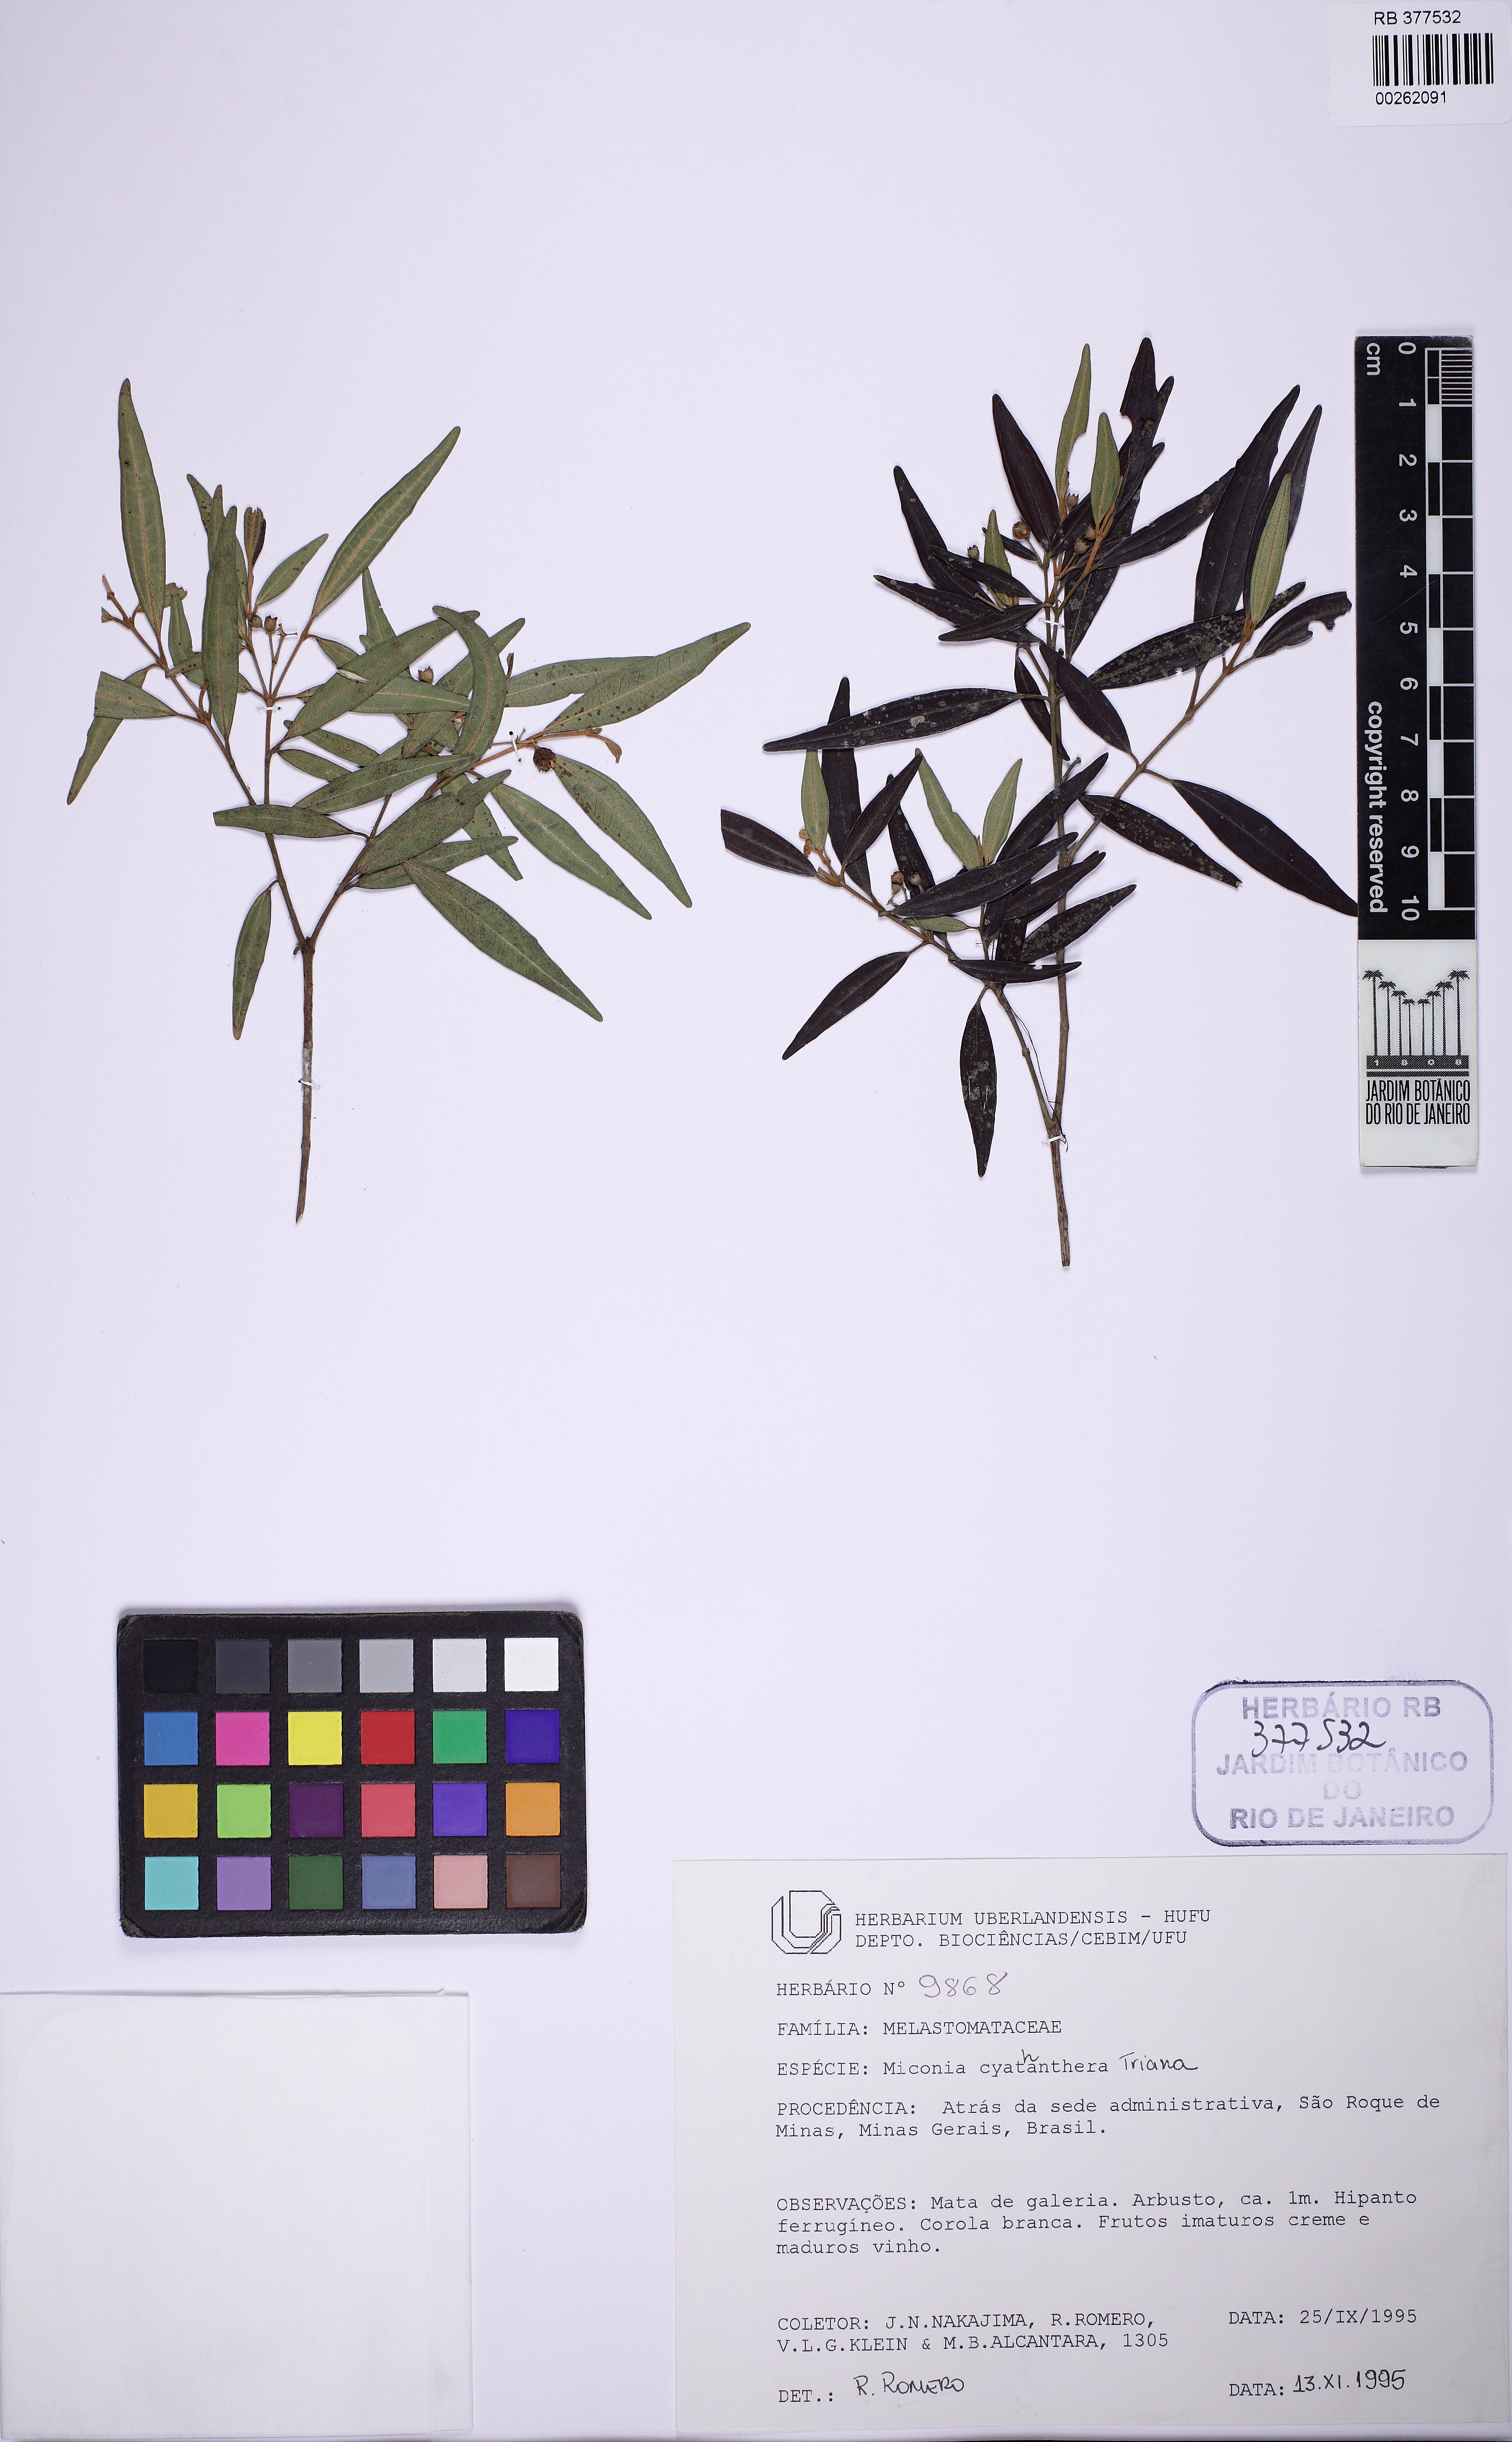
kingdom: Plantae
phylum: Tracheophyta
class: Magnoliopsida
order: Myrtales
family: Melastomataceae
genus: Miconia
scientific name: Miconia cyathanthera
